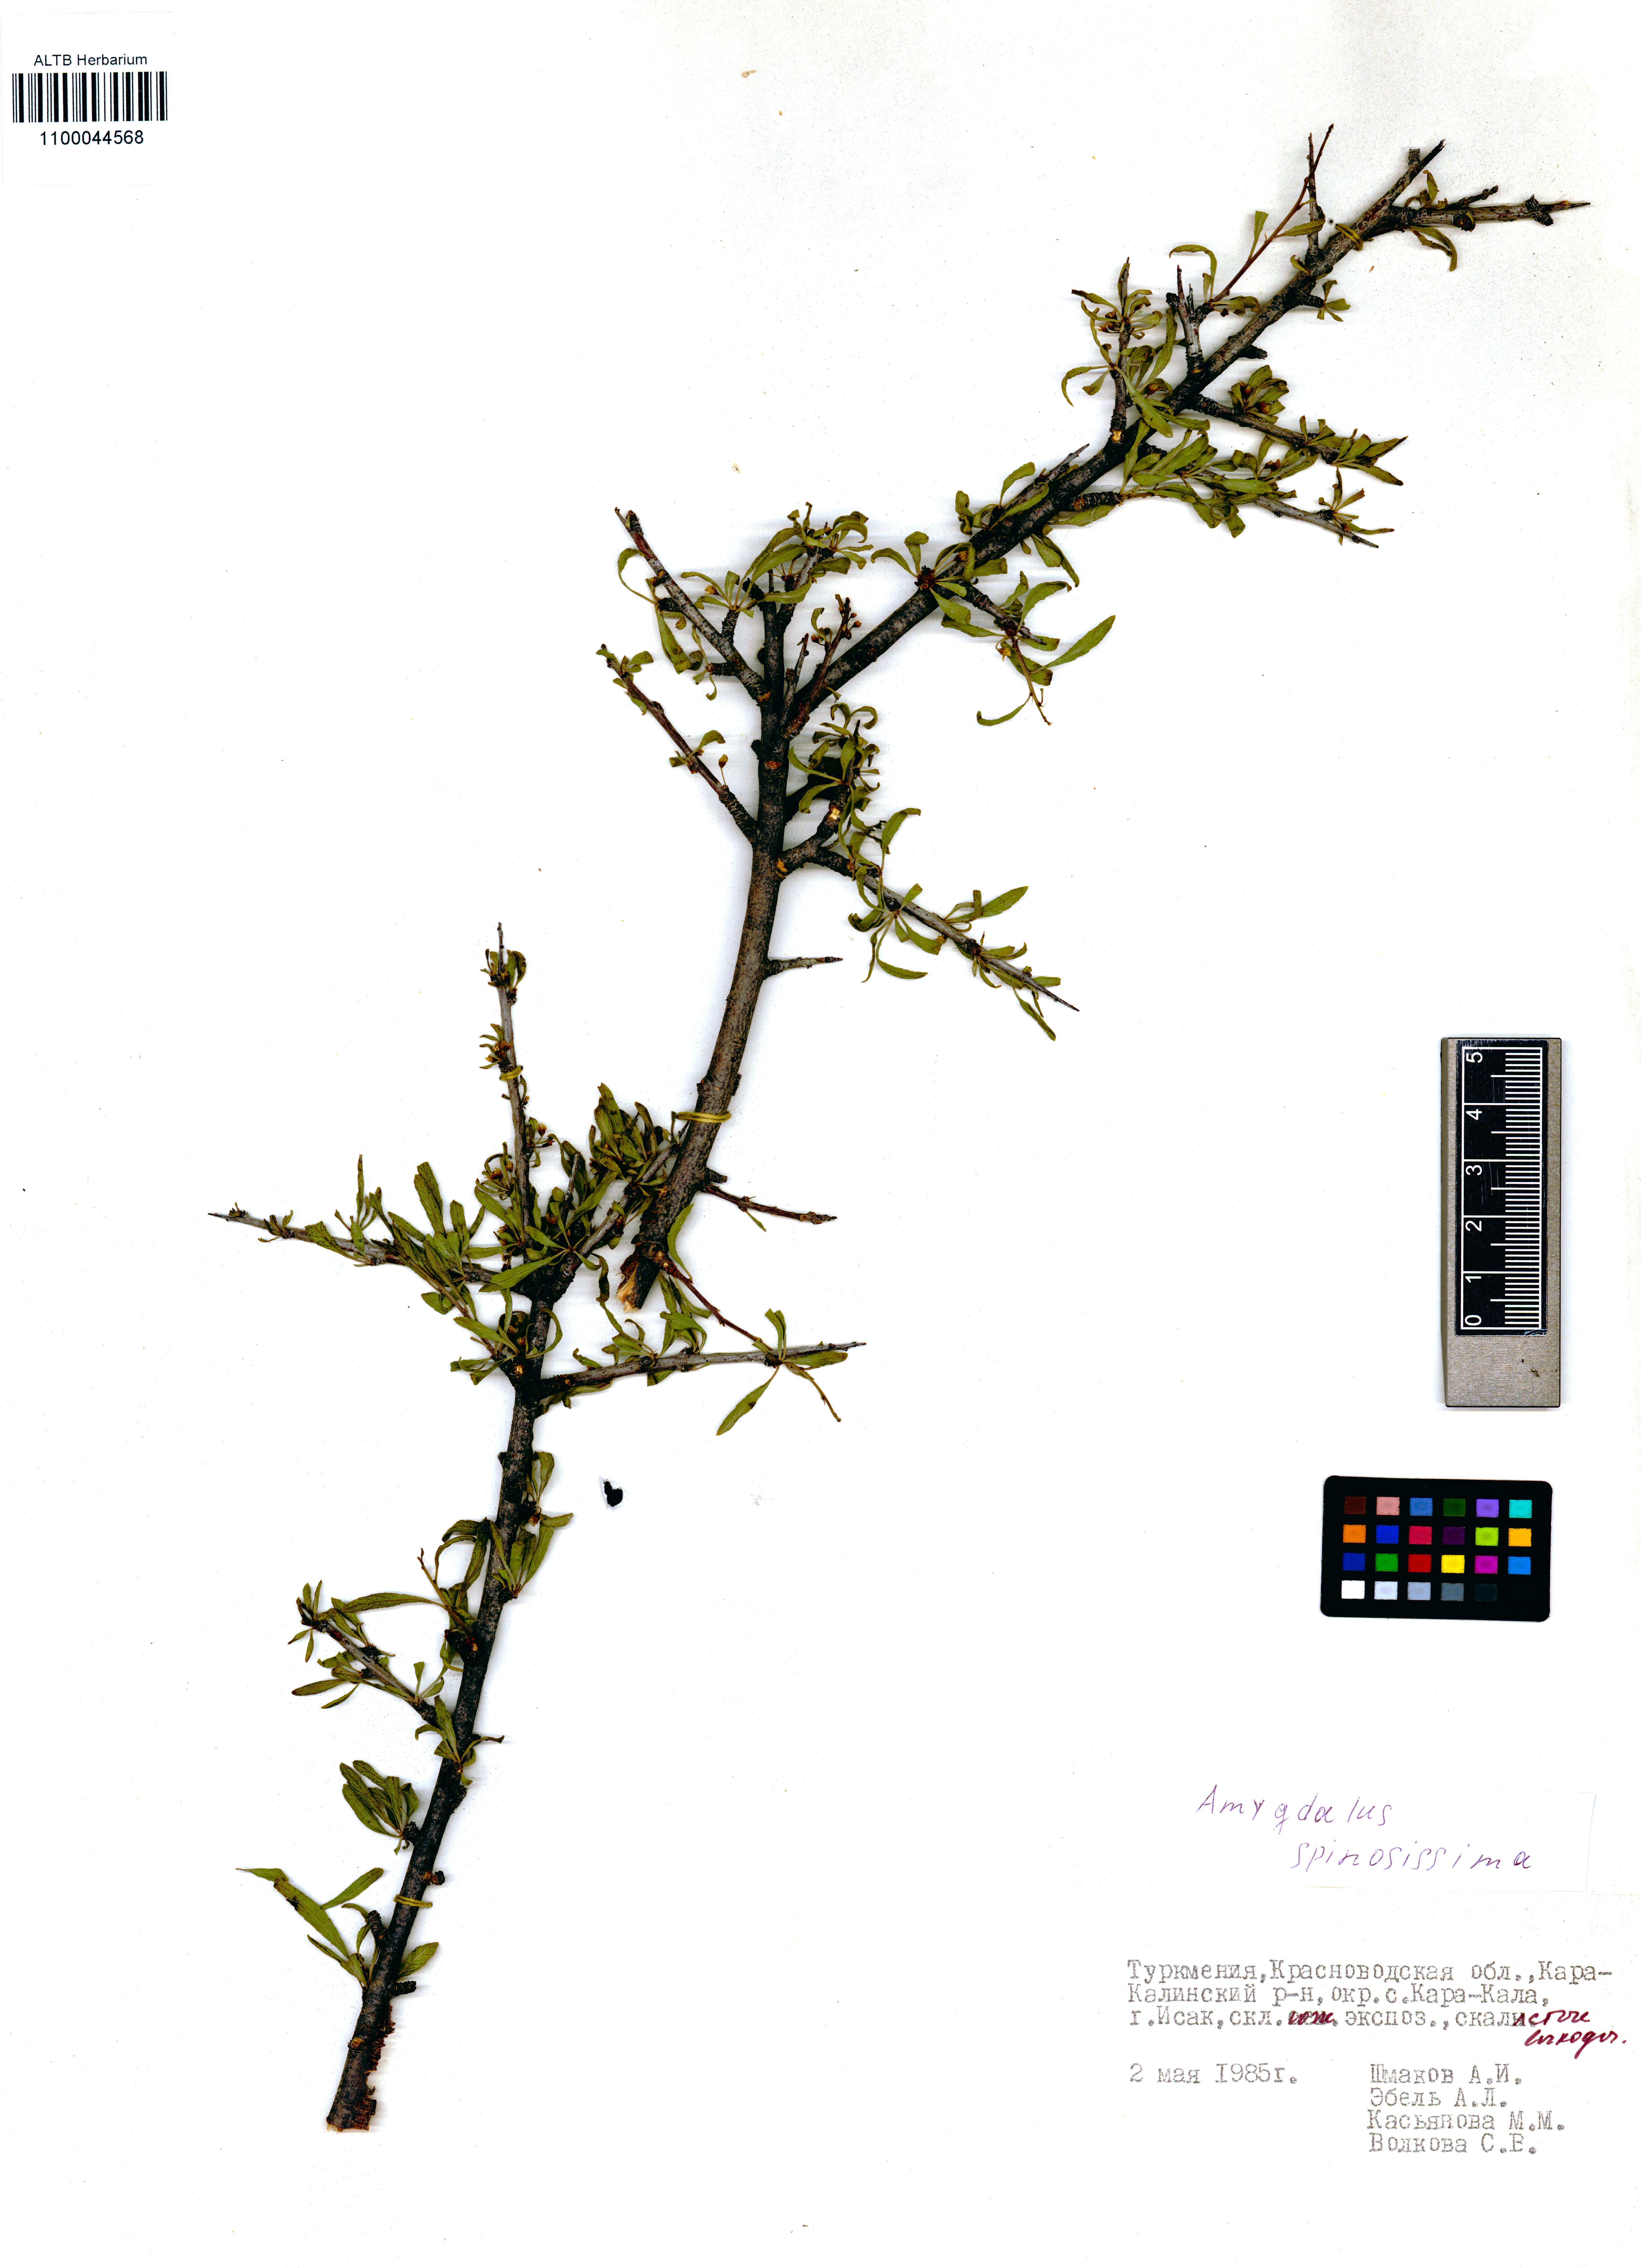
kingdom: Plantae
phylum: Tracheophyta
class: Magnoliopsida
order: Rosales
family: Rosaceae
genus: Prunus
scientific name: Prunus spinosissima
